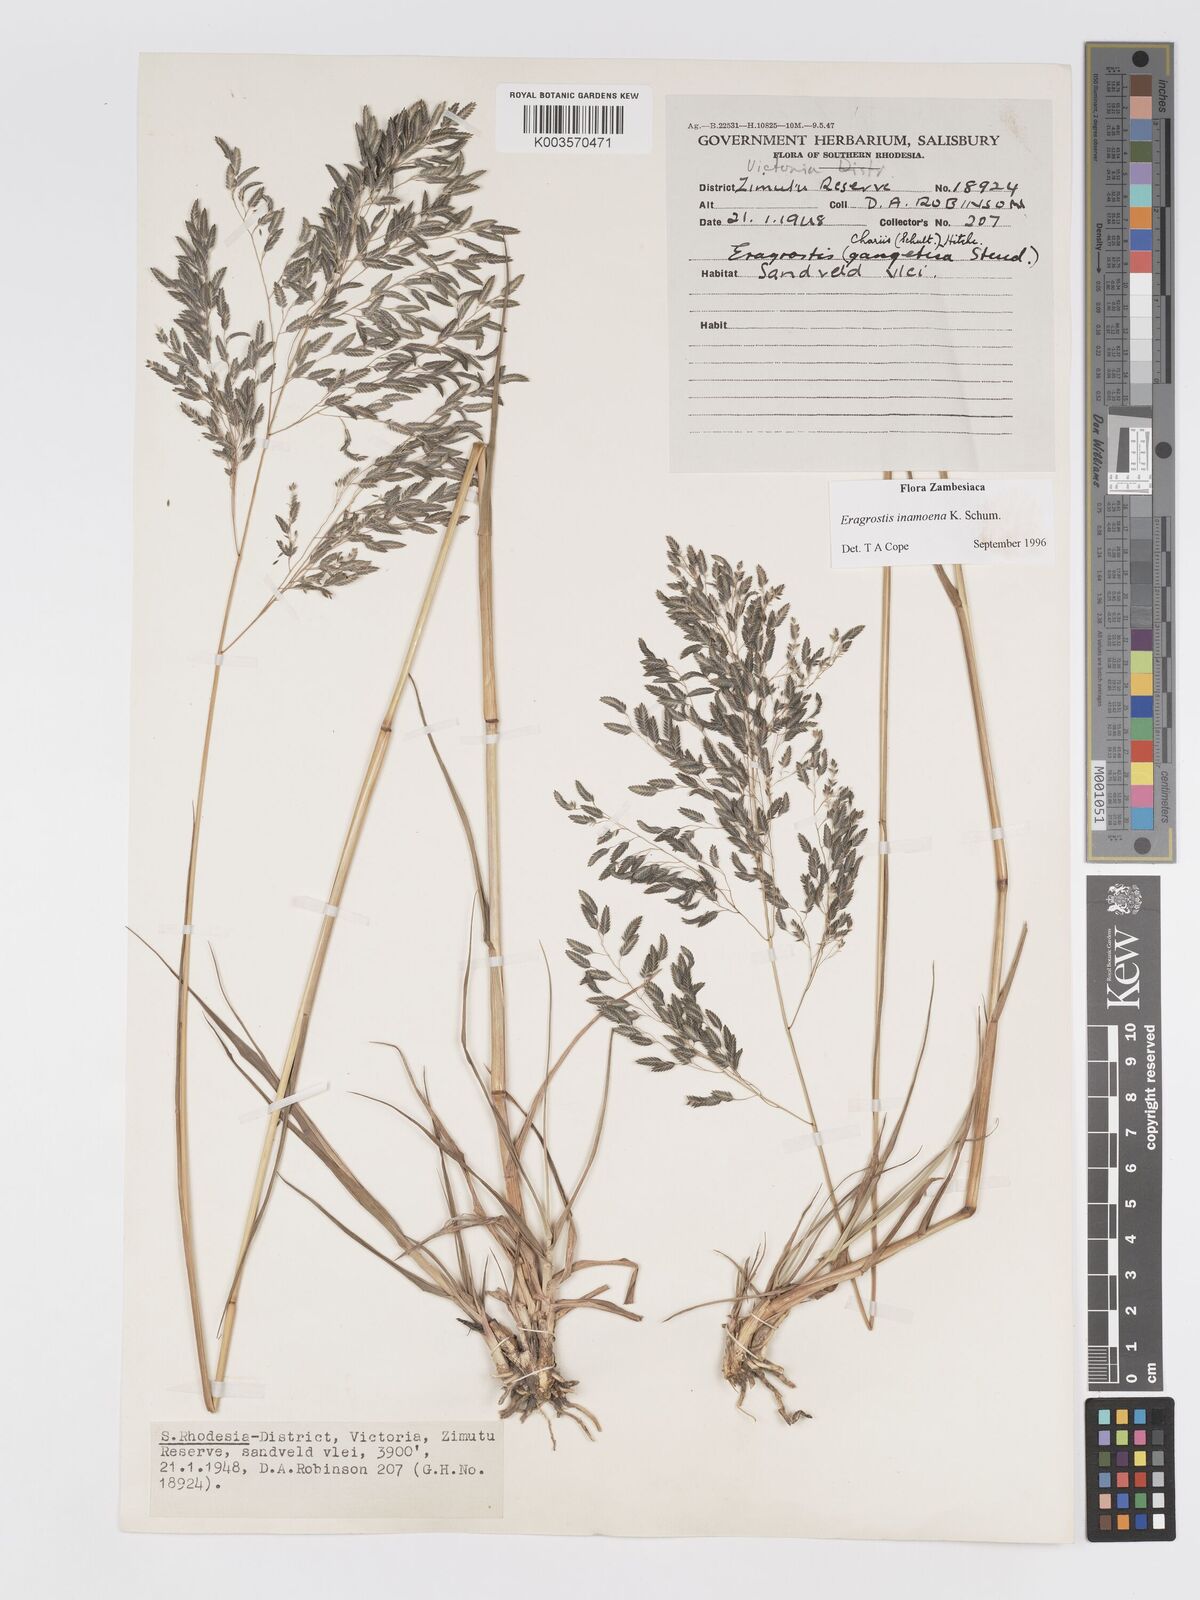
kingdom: Plantae
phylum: Tracheophyta
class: Liliopsida
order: Poales
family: Poaceae
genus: Eragrostis
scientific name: Eragrostis inamoena
